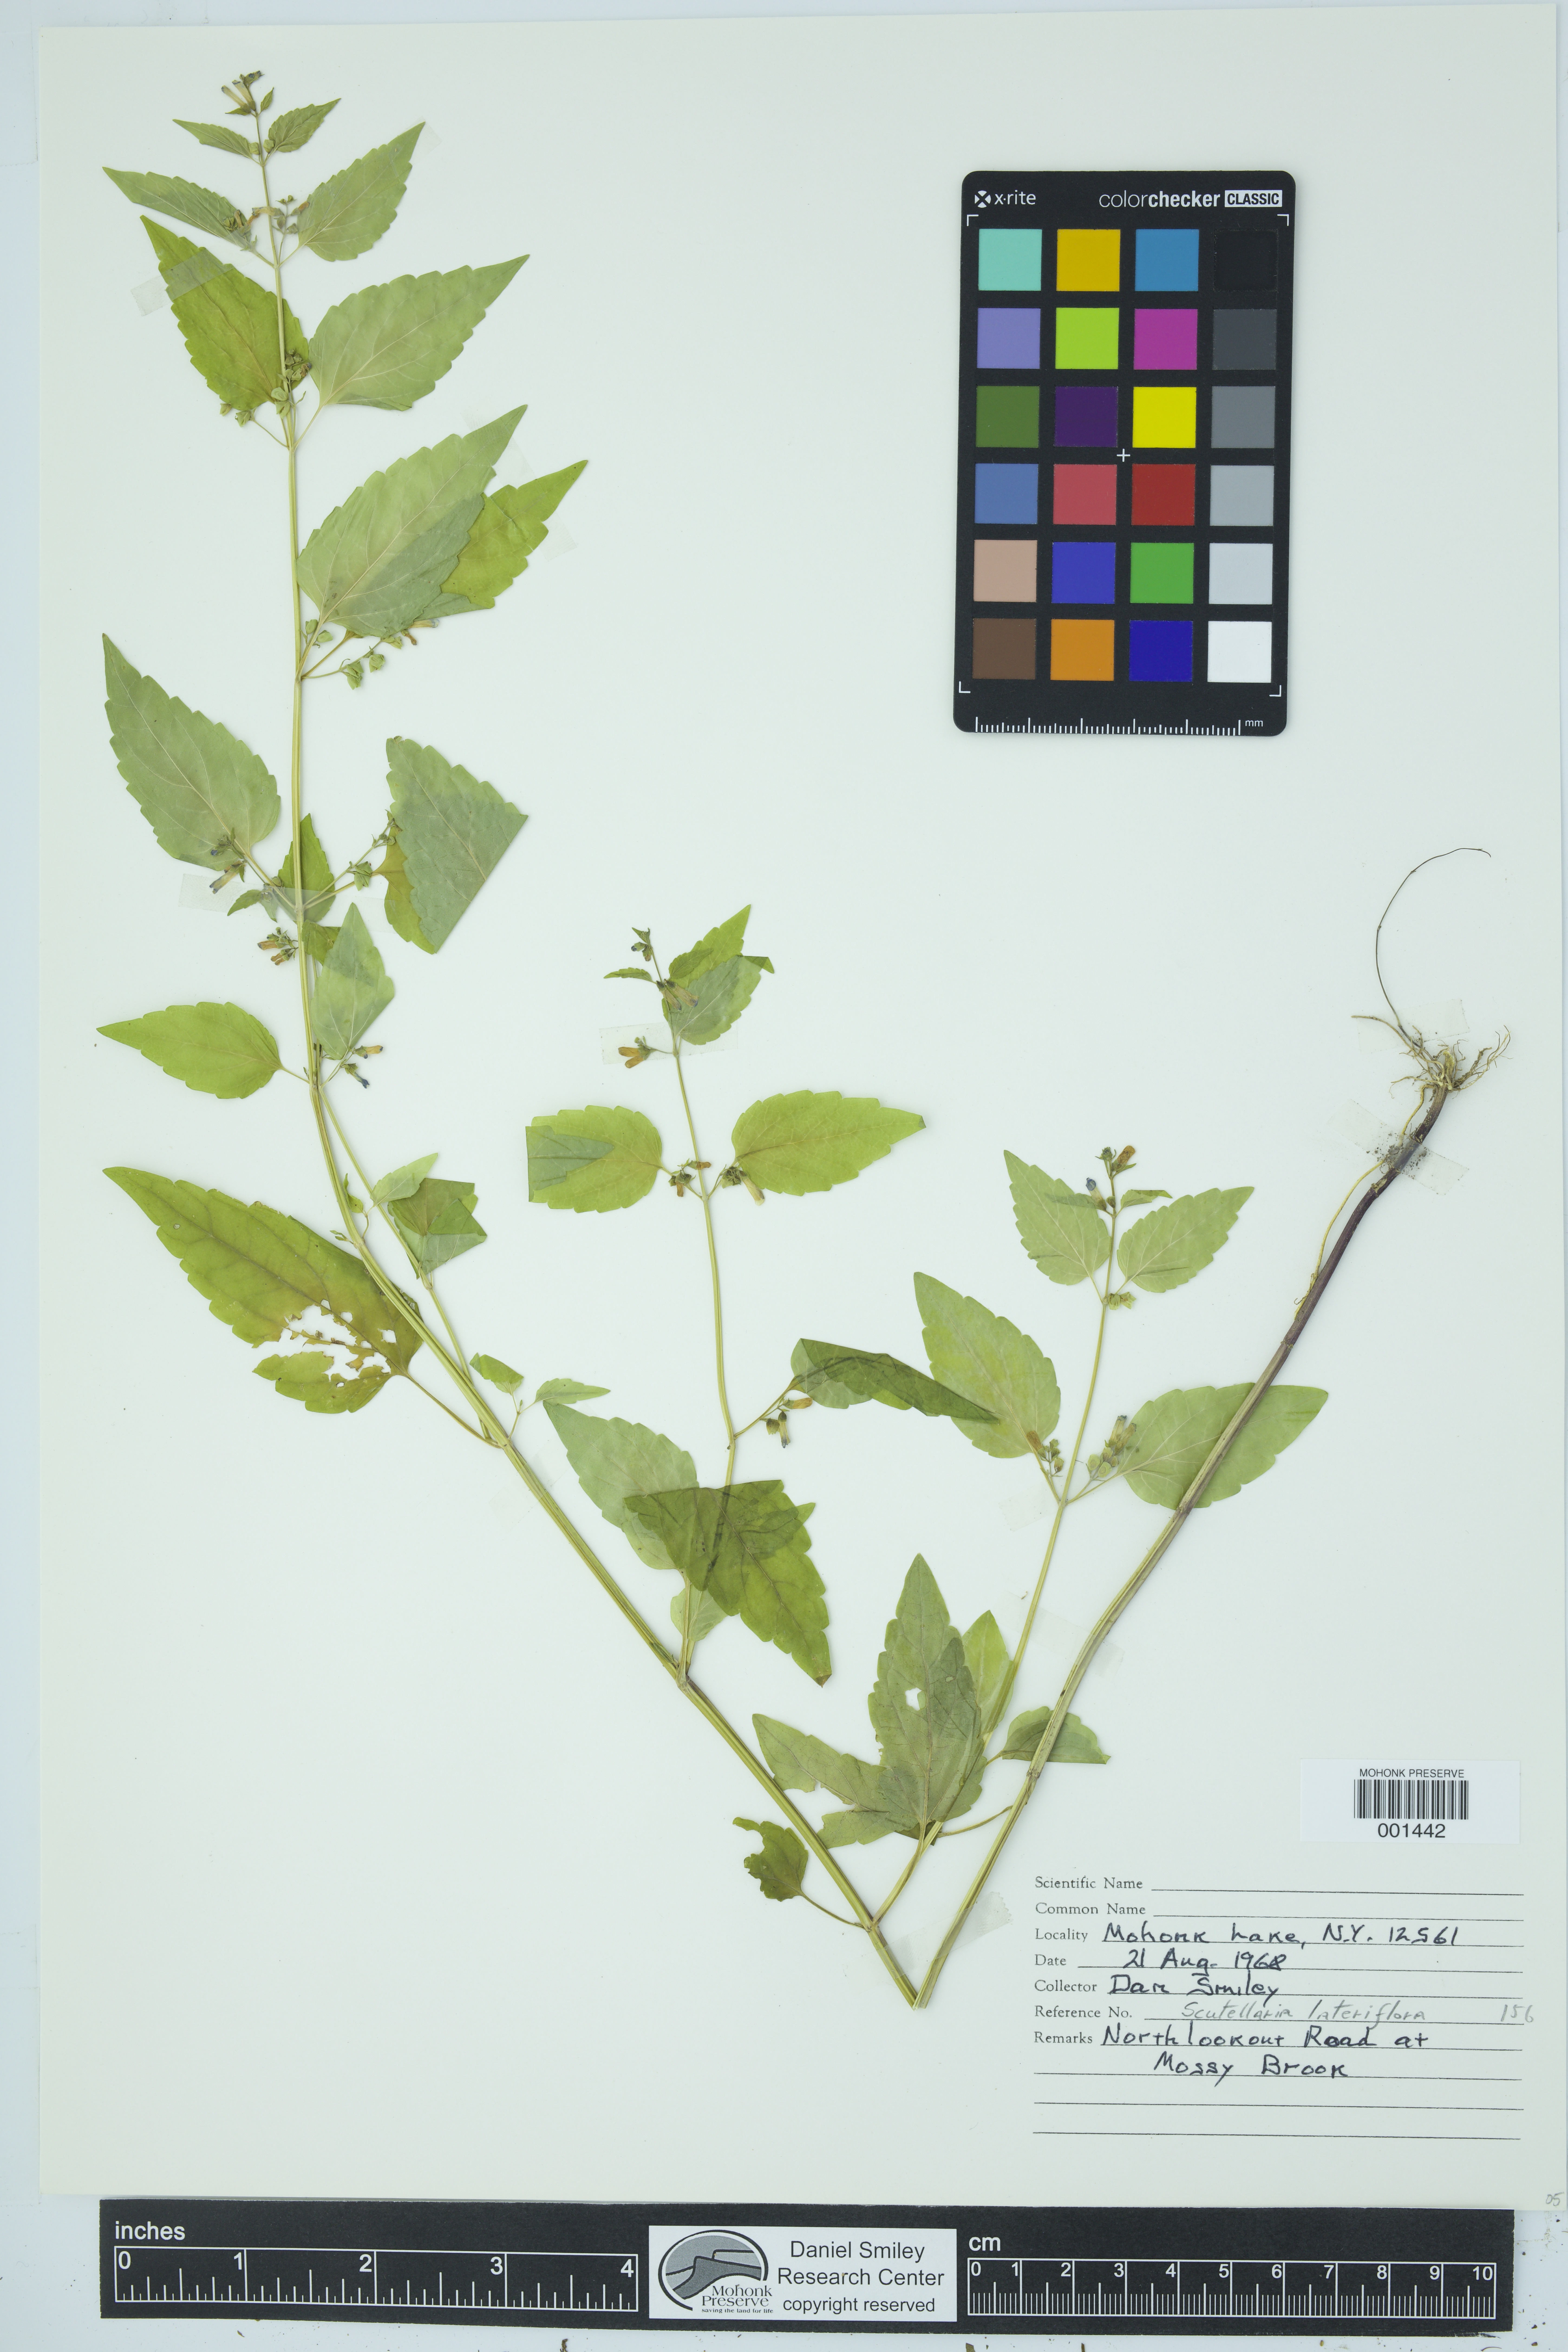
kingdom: Plantae
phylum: Tracheophyta
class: Magnoliopsida
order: Lamiales
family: Lamiaceae
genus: Scutellaria
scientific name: Scutellaria lateriflora
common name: Blue skullcap
